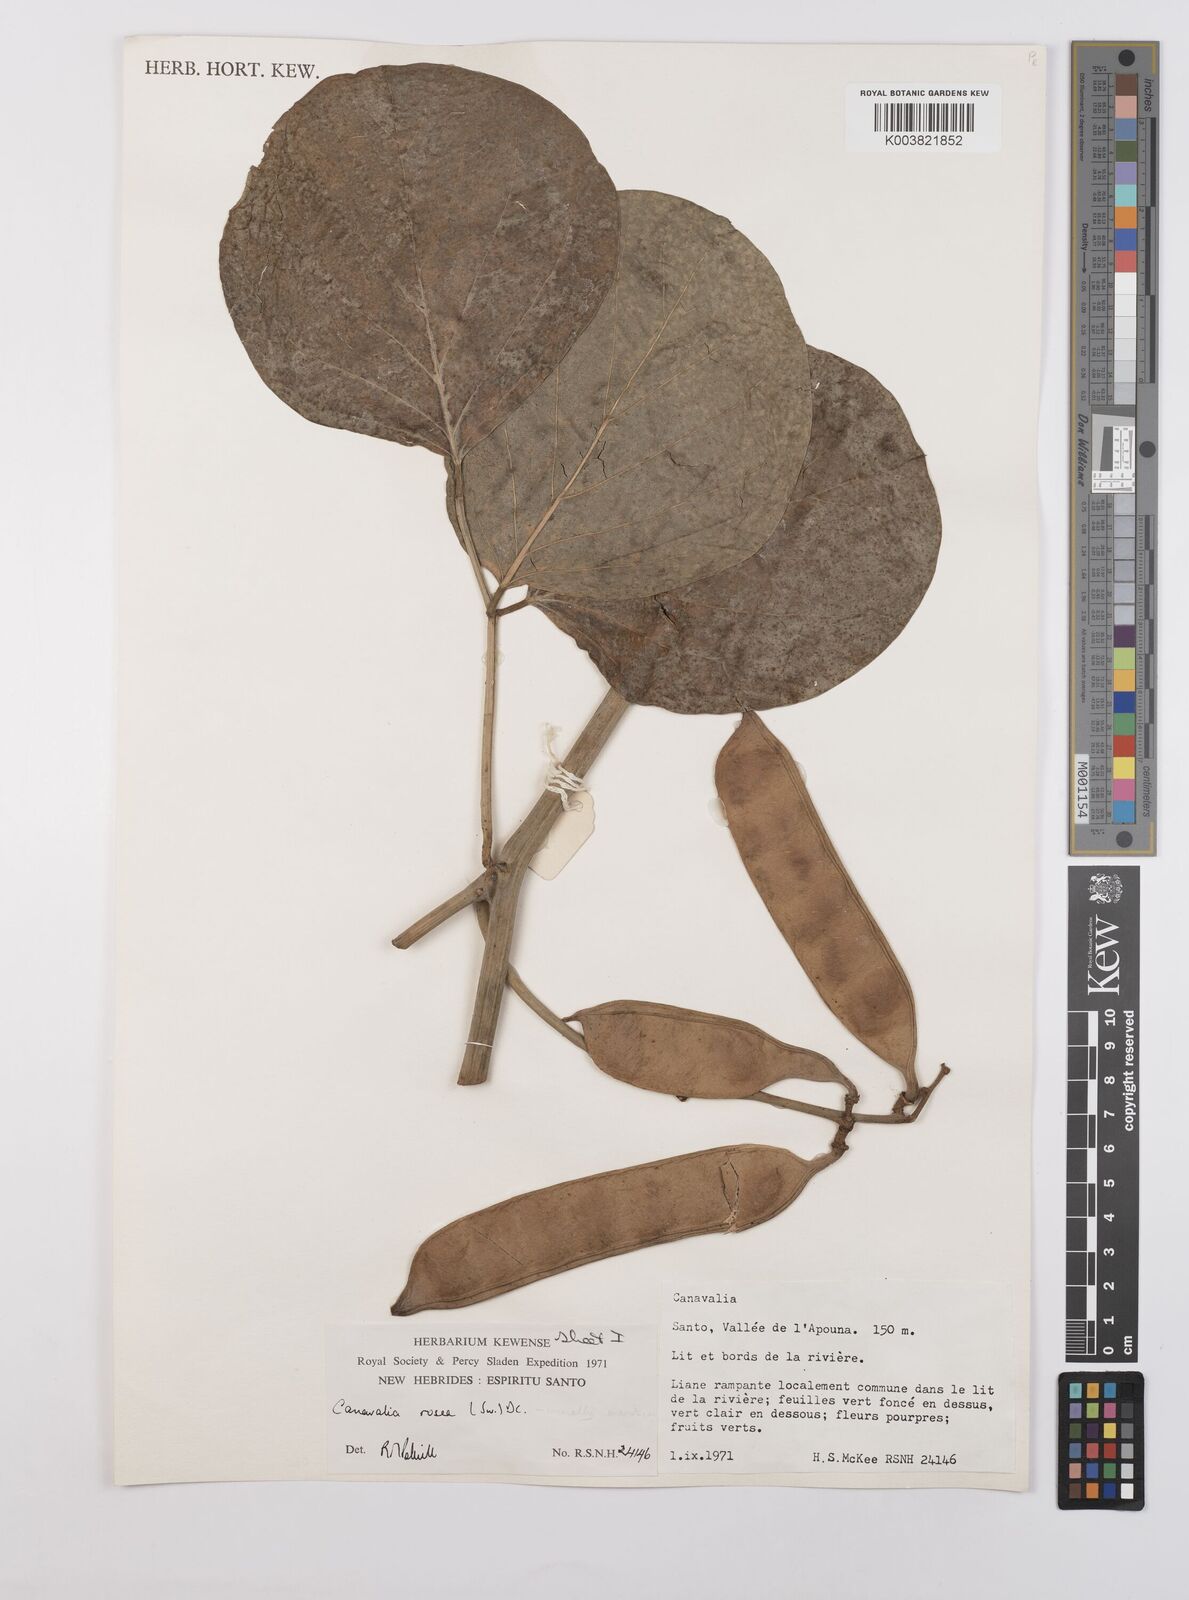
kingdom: Plantae
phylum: Tracheophyta
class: Magnoliopsida
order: Fabales
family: Fabaceae
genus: Canavalia
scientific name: Canavalia rosea
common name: Beach-bean
